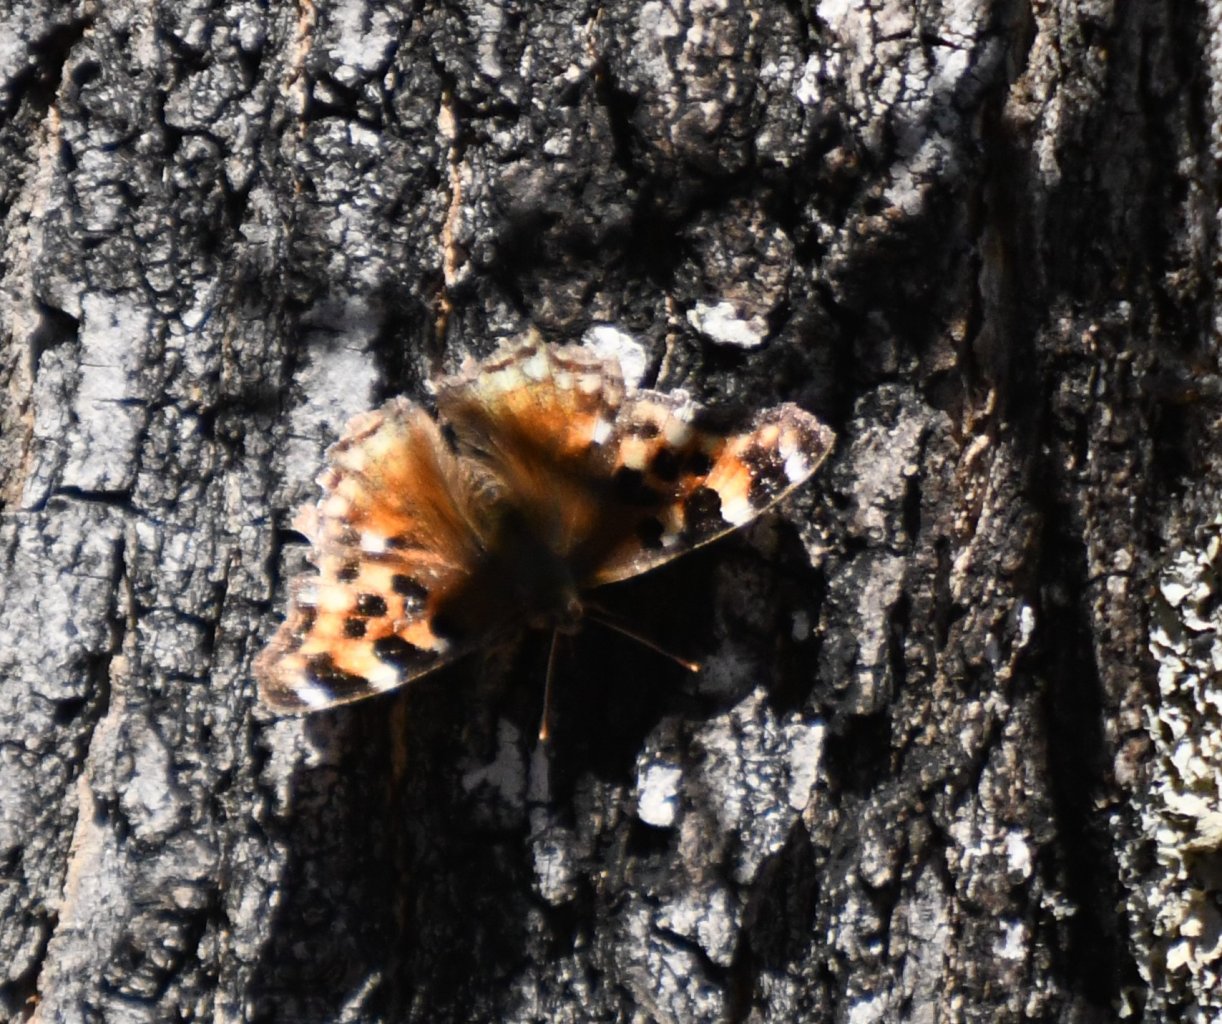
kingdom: Animalia
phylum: Arthropoda
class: Insecta
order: Lepidoptera
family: Nymphalidae
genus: Polygonia
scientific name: Polygonia vaualbum
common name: Compton Tortoiseshell
